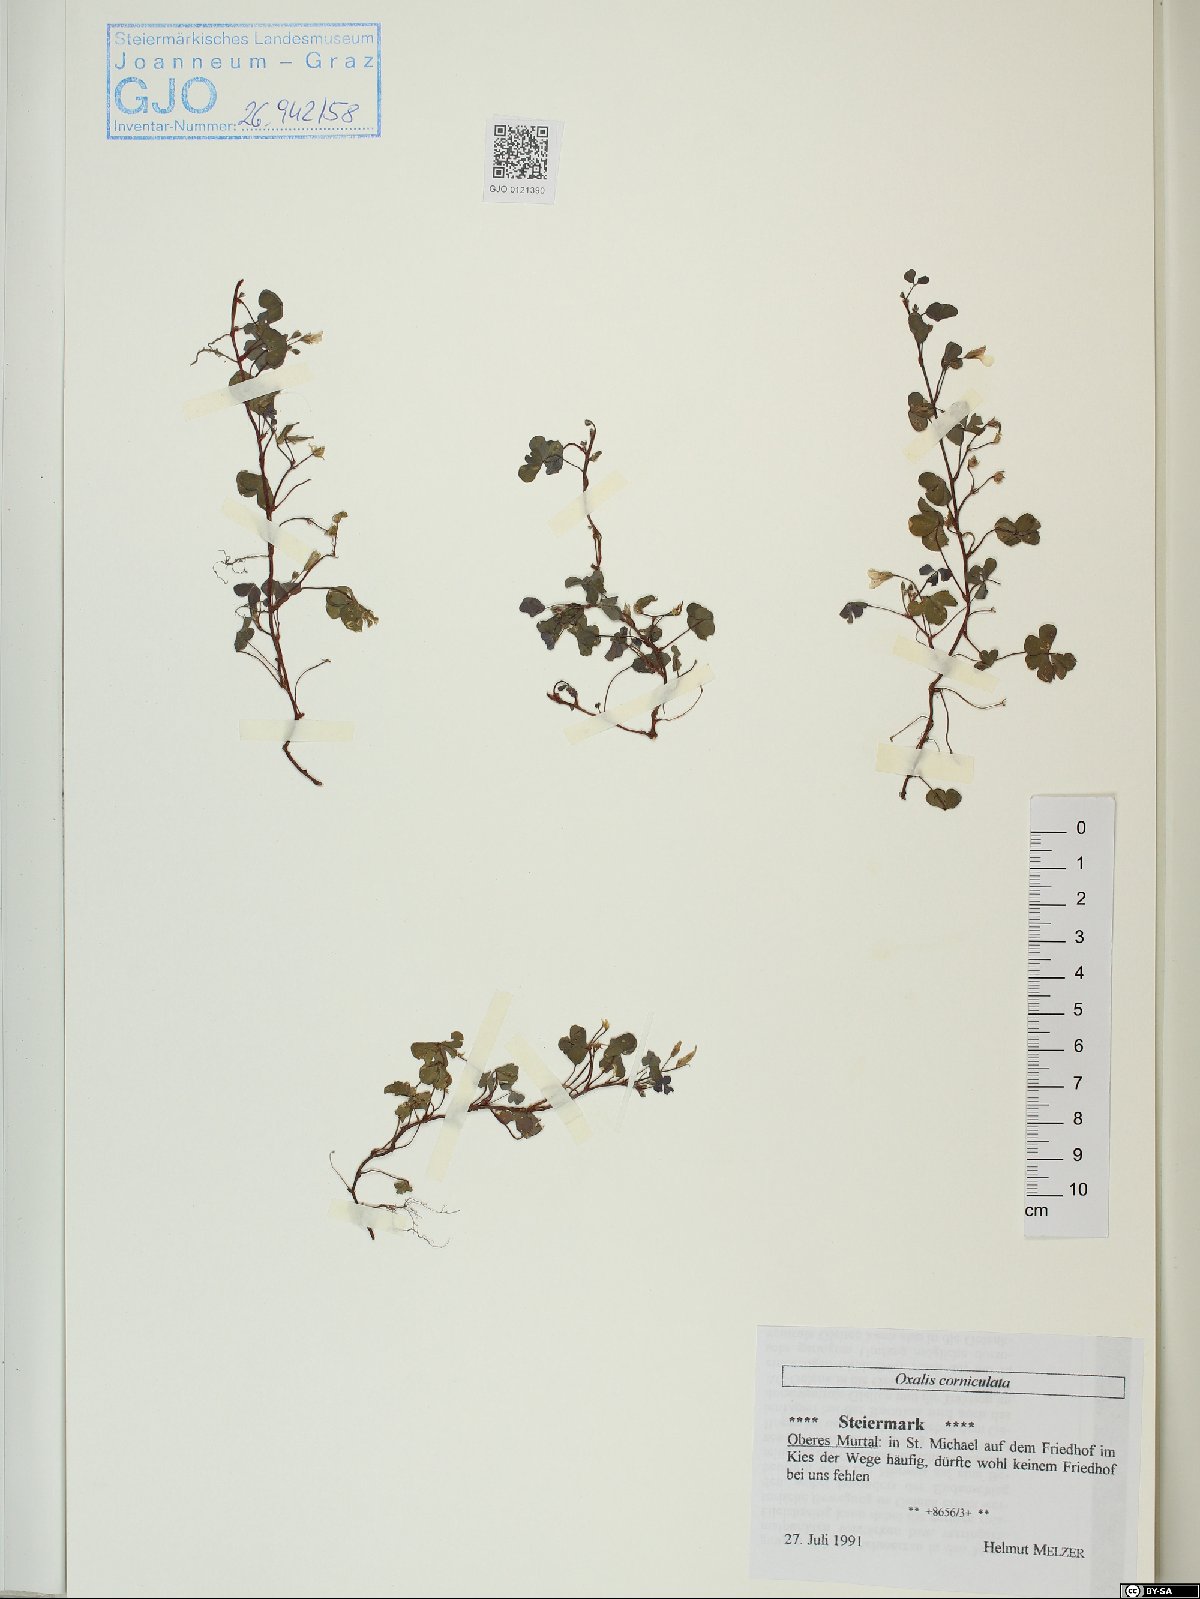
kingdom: Plantae
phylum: Tracheophyta
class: Magnoliopsida
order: Oxalidales
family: Oxalidaceae
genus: Oxalis
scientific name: Oxalis corniculata
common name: Procumbent yellow-sorrel
